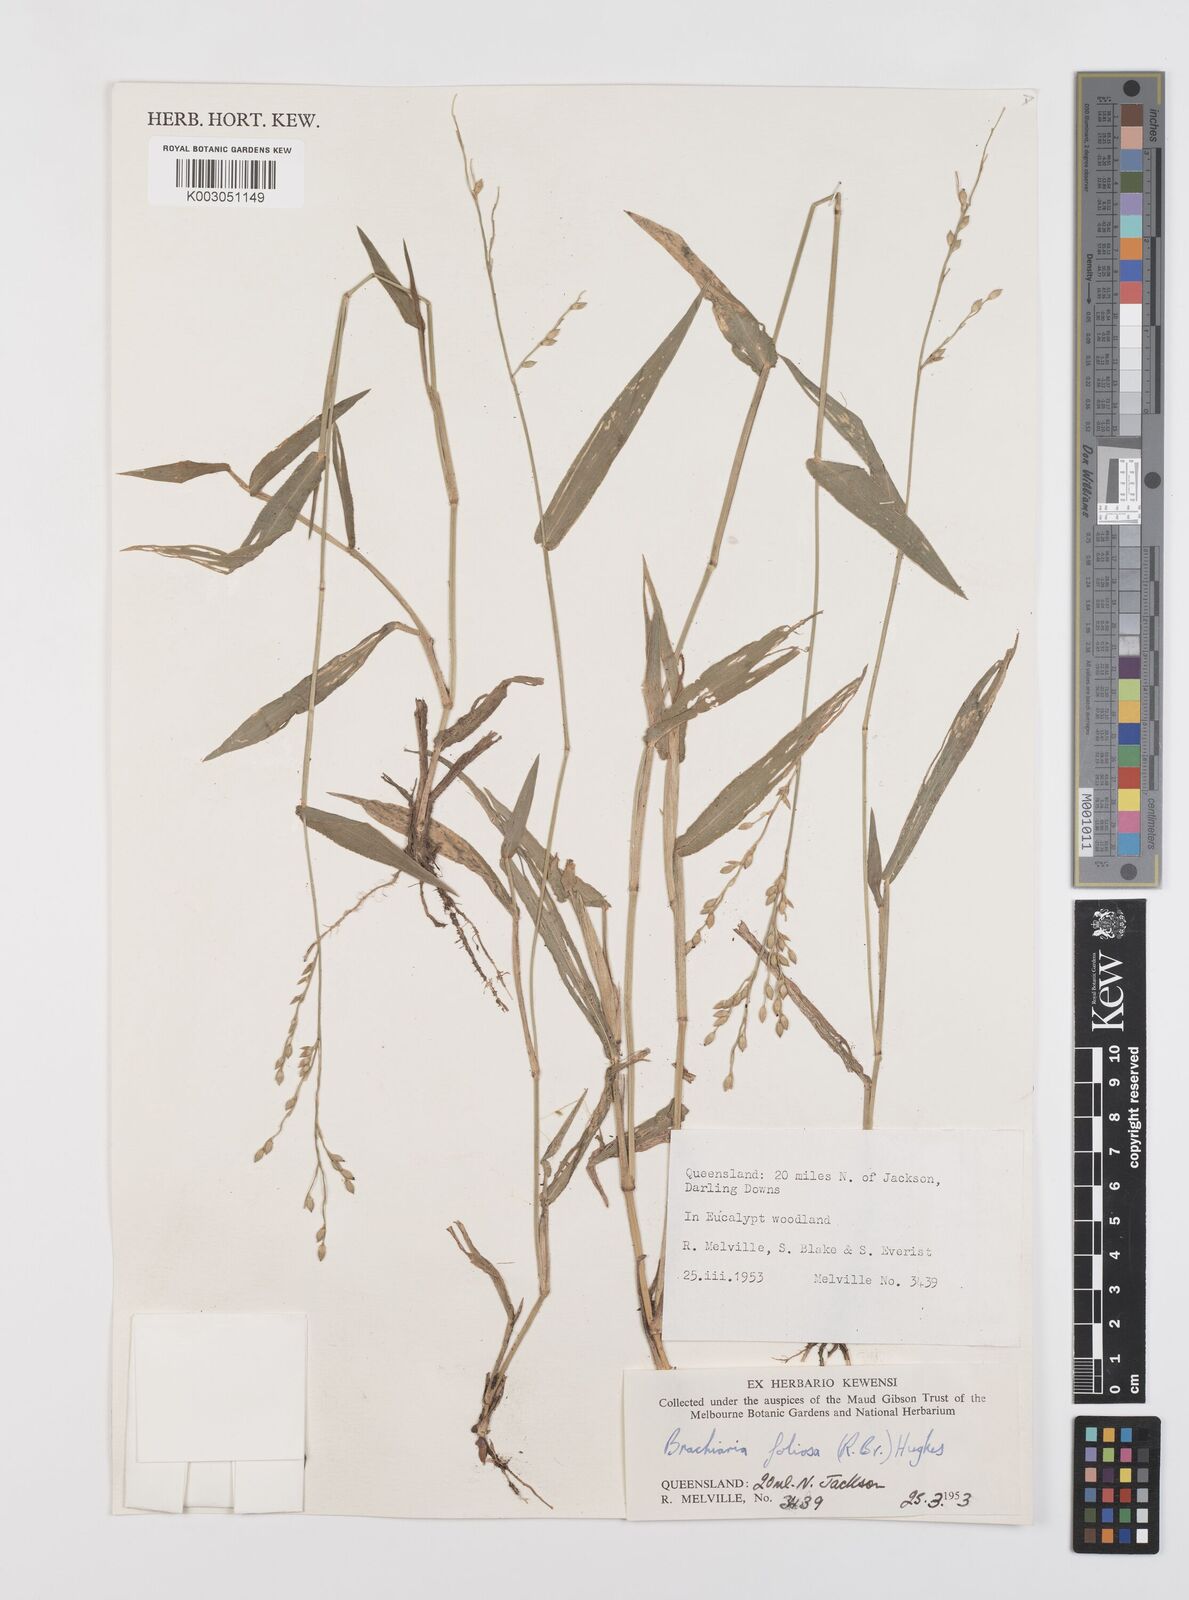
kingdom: Plantae
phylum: Tracheophyta
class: Liliopsida
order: Poales
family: Poaceae
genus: Urochloa
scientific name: Urochloa foliosa
